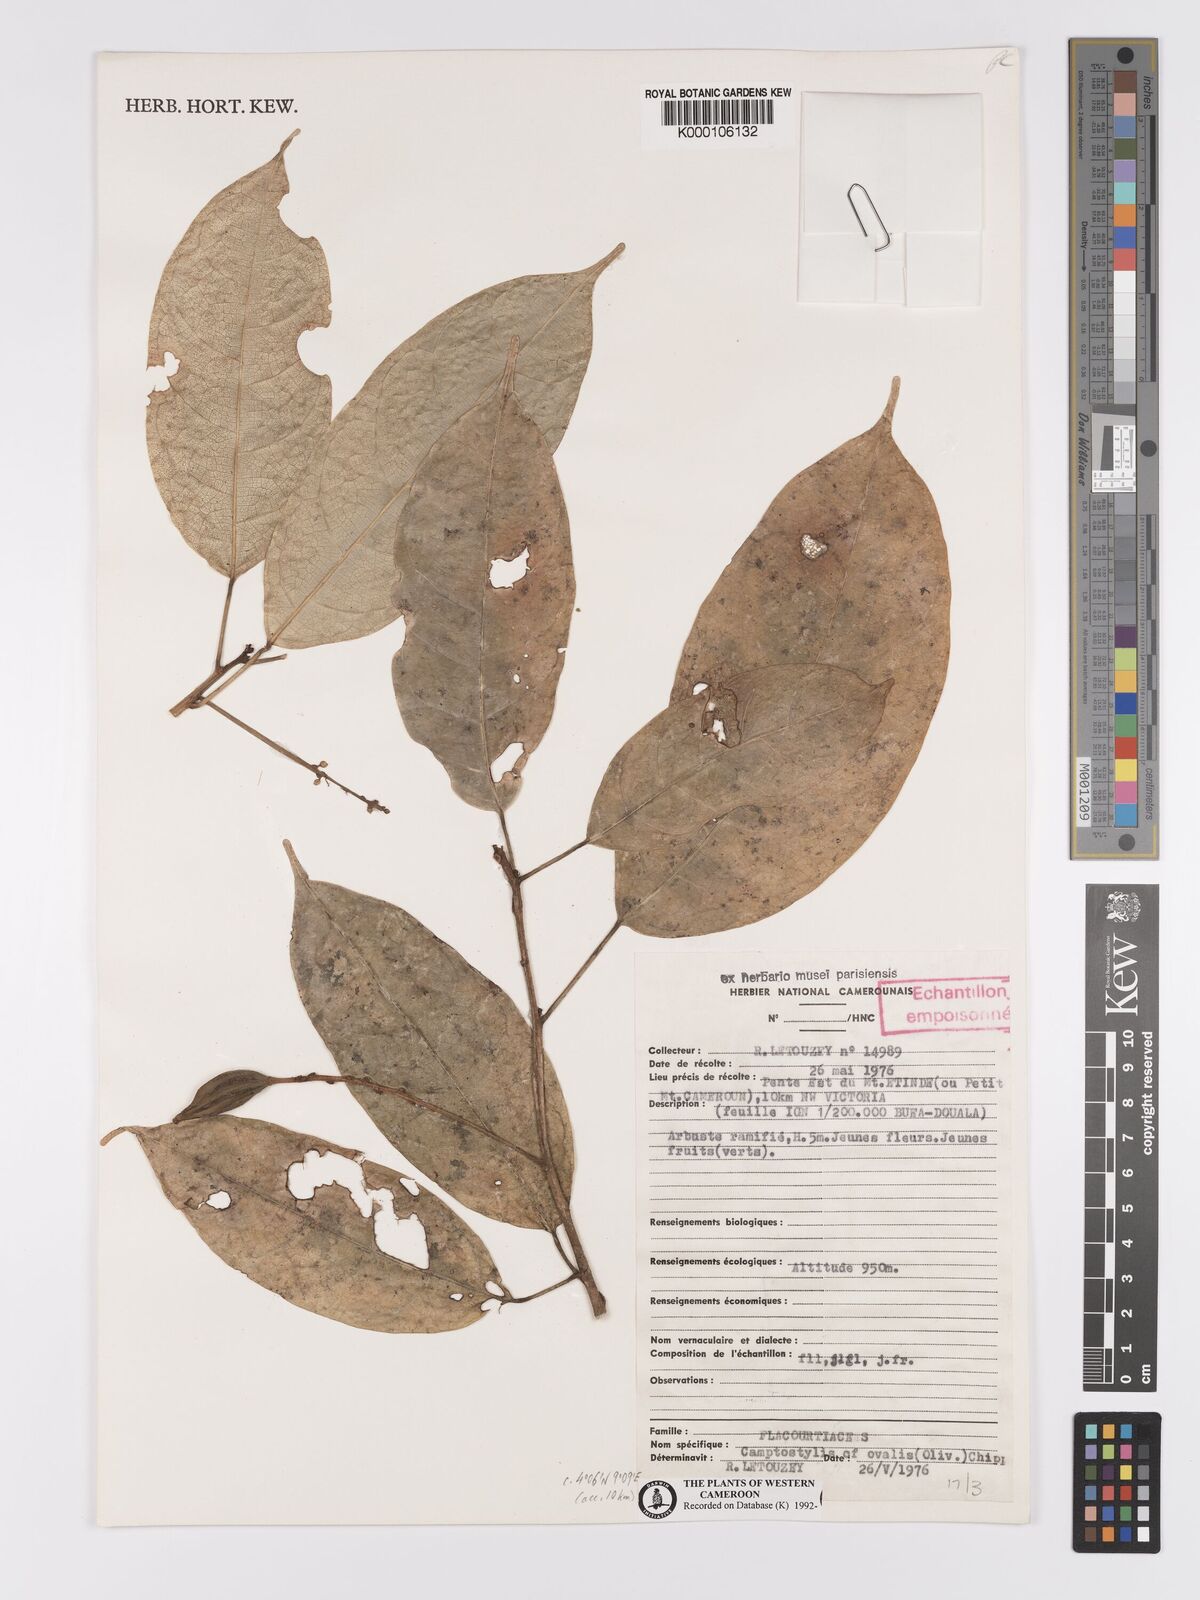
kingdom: Plantae
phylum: Tracheophyta
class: Magnoliopsida
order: Malpighiales
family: Achariaceae
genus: Camptostylus
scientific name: Camptostylus ovalis
